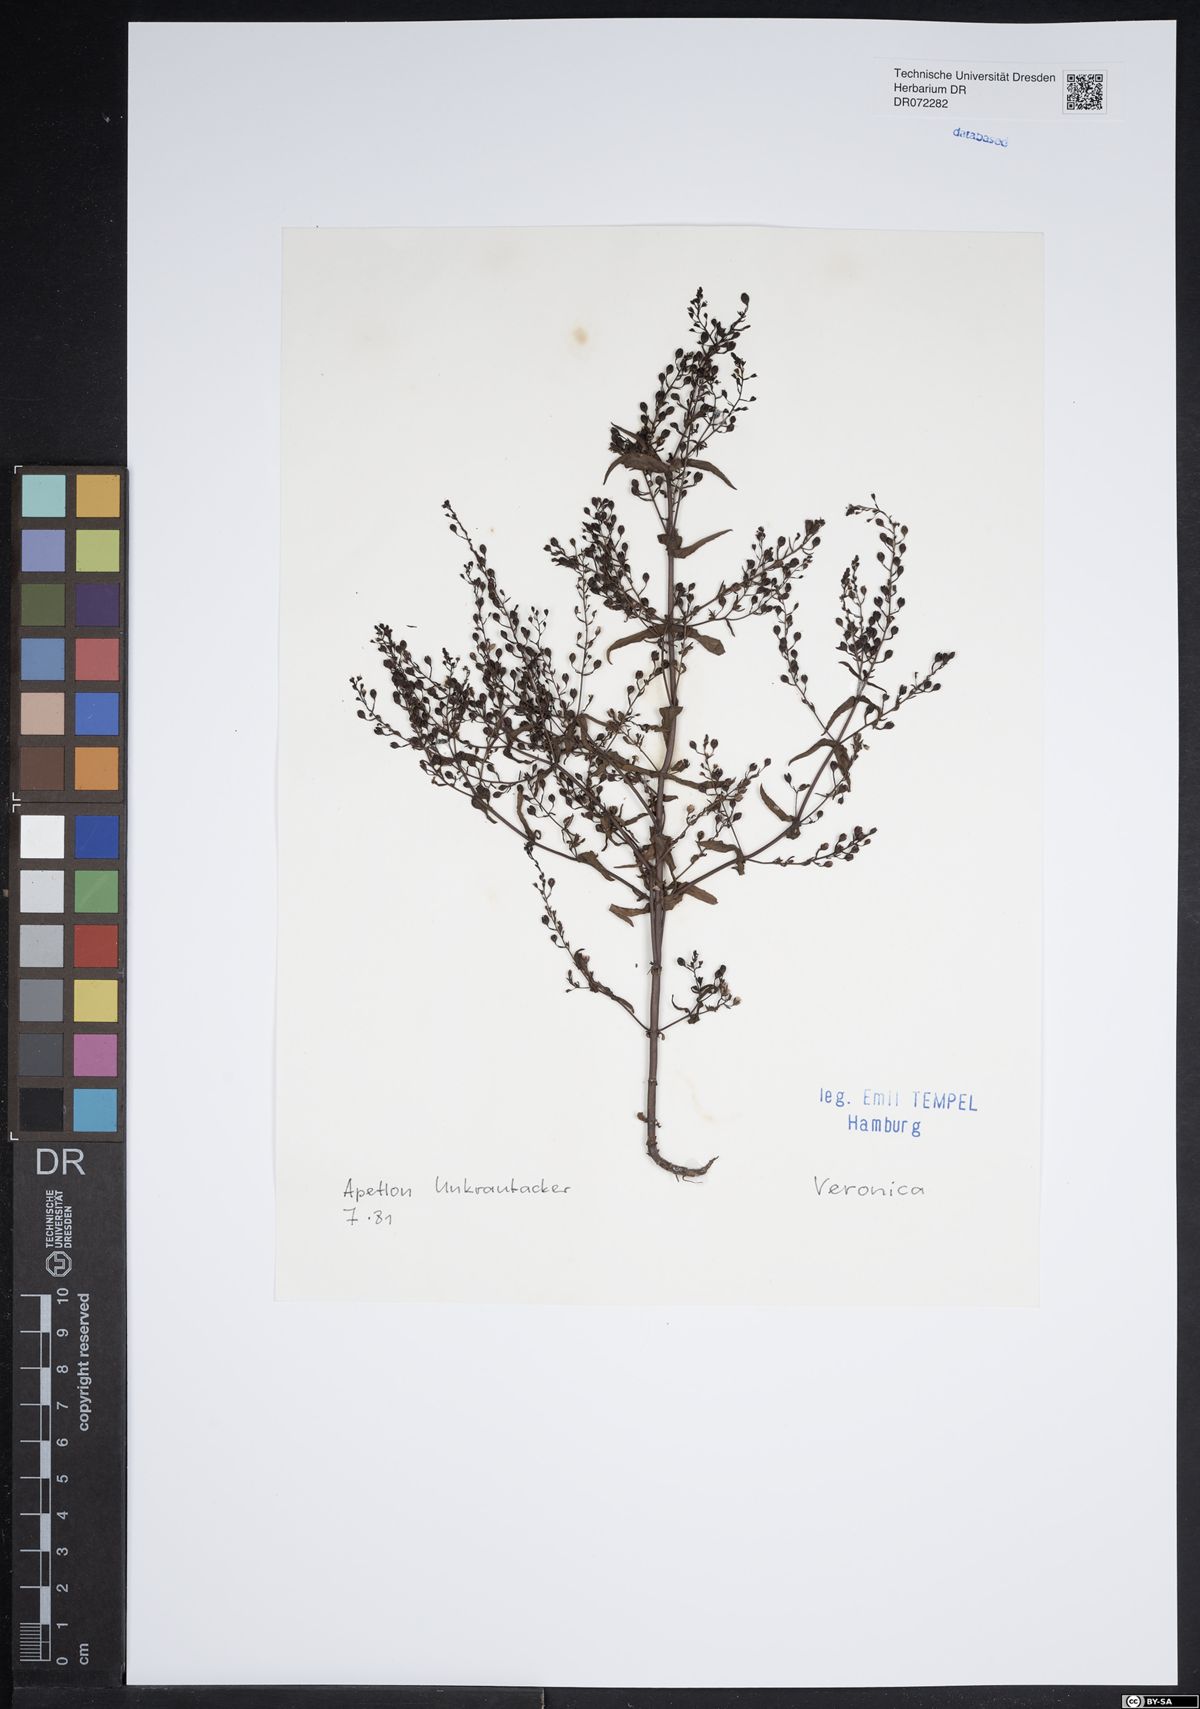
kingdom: Plantae
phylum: Tracheophyta
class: Magnoliopsida
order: Lamiales
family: Plantaginaceae
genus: Veronica
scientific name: Veronica
